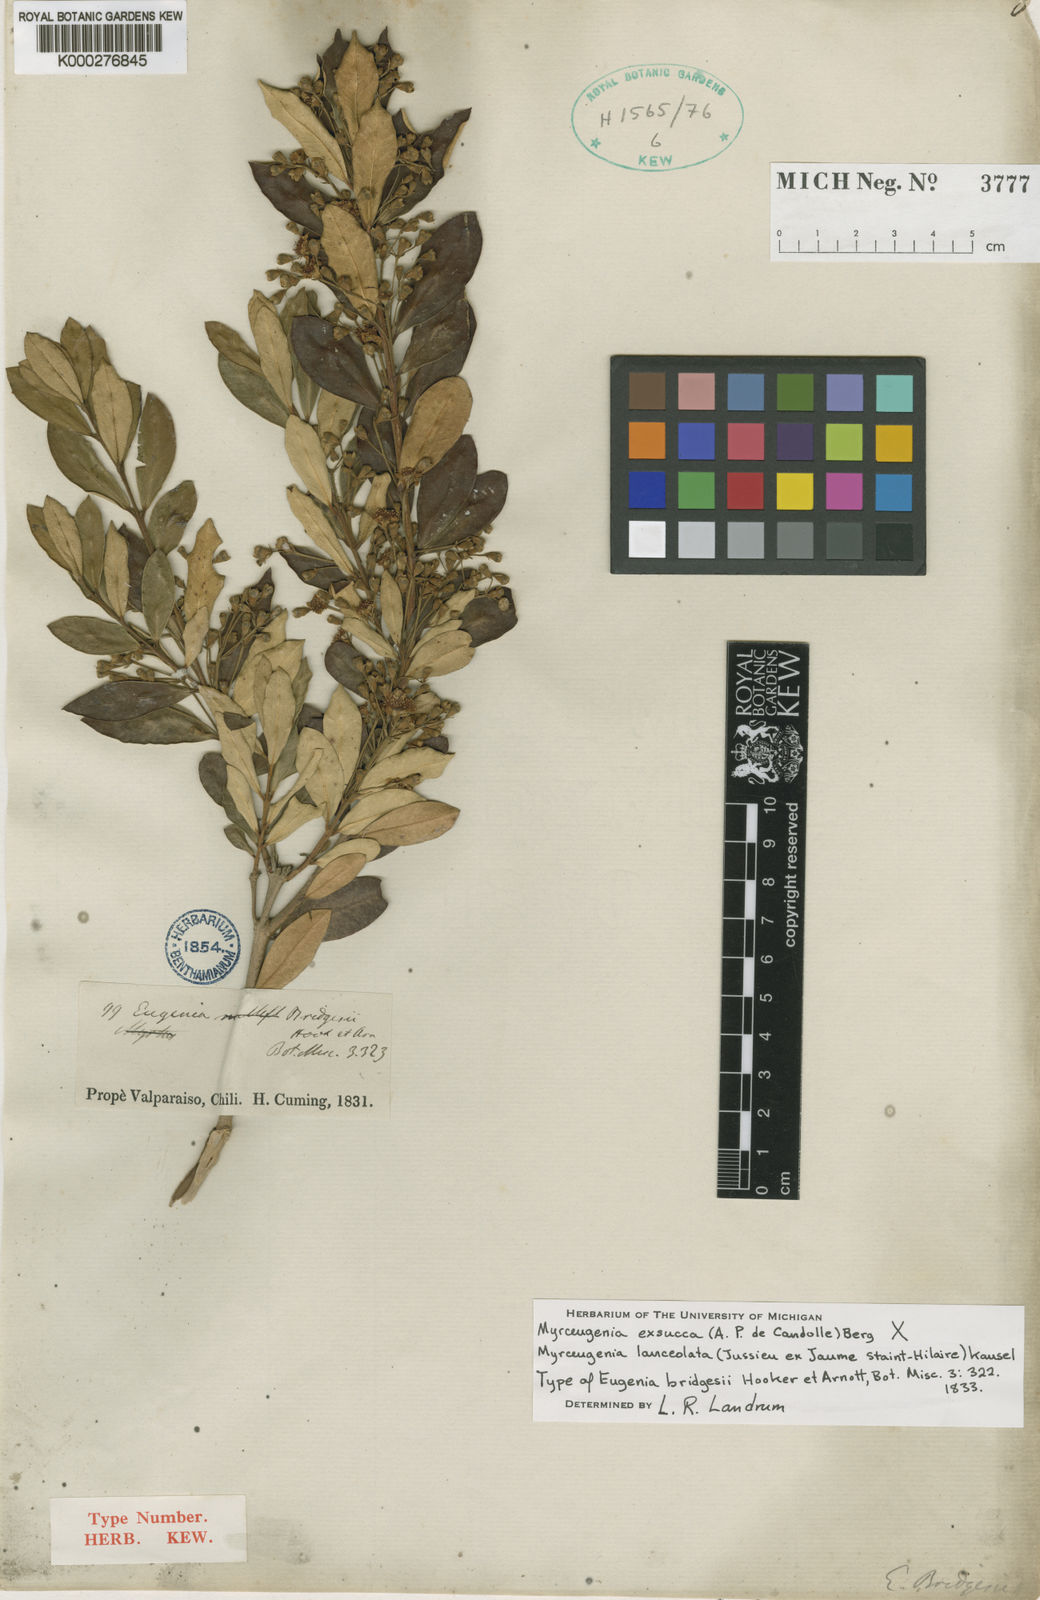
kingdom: Plantae
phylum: Tracheophyta
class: Magnoliopsida
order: Myrtales
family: Myrtaceae
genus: Myrceugenia
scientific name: Myrceugenia bridgesii
